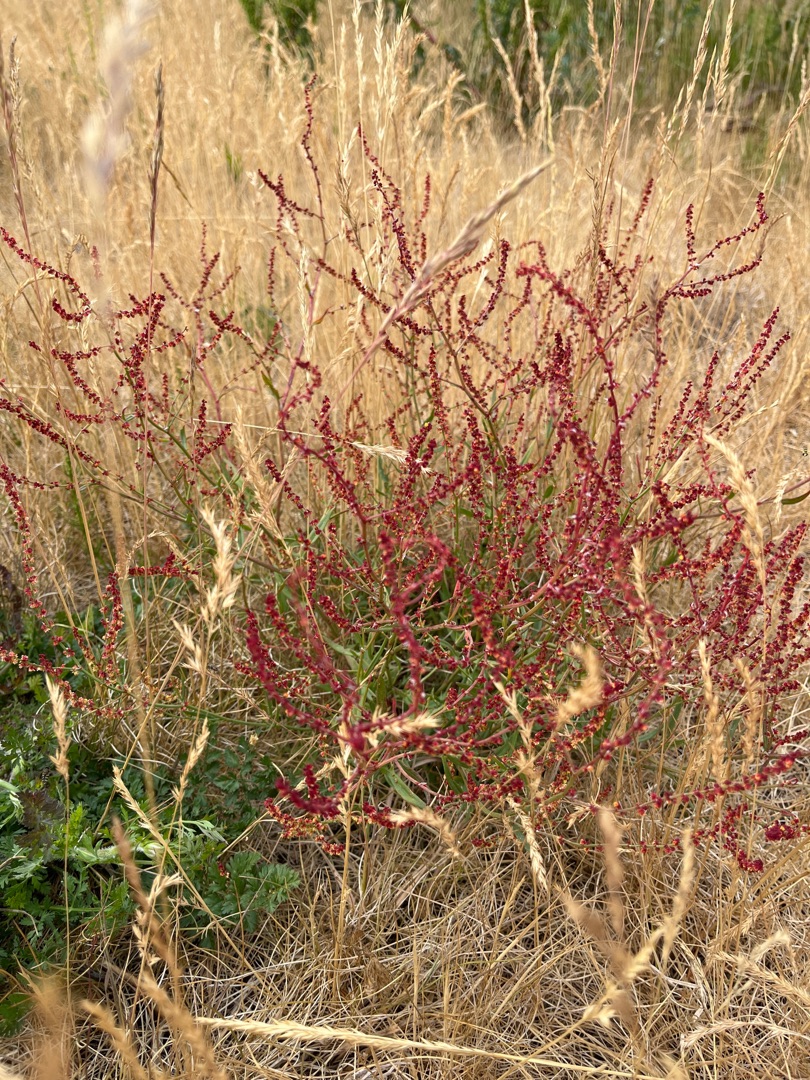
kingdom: Plantae
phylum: Tracheophyta
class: Magnoliopsida
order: Caryophyllales
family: Polygonaceae
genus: Rumex
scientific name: Rumex acetosella
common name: Rødknæ
